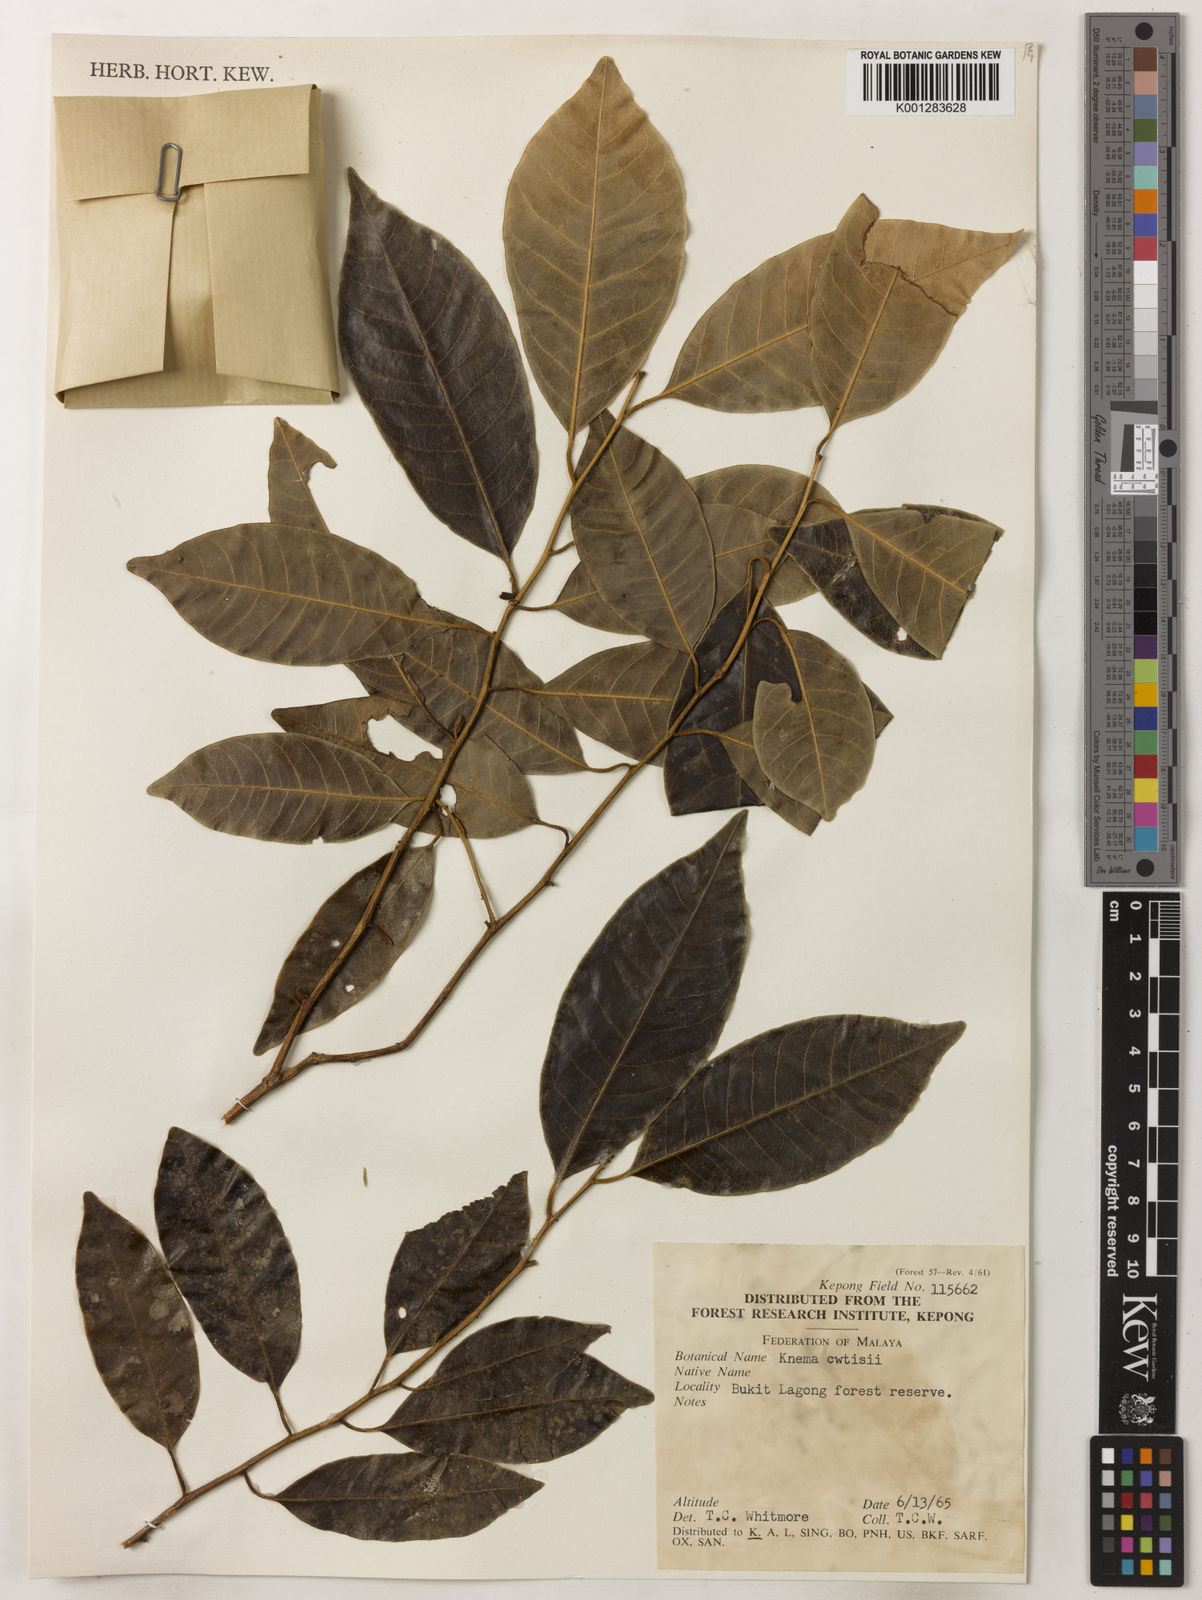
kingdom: Plantae
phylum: Tracheophyta
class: Magnoliopsida
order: Magnoliales
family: Myristicaceae
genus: Knema
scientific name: Knema curtisii
